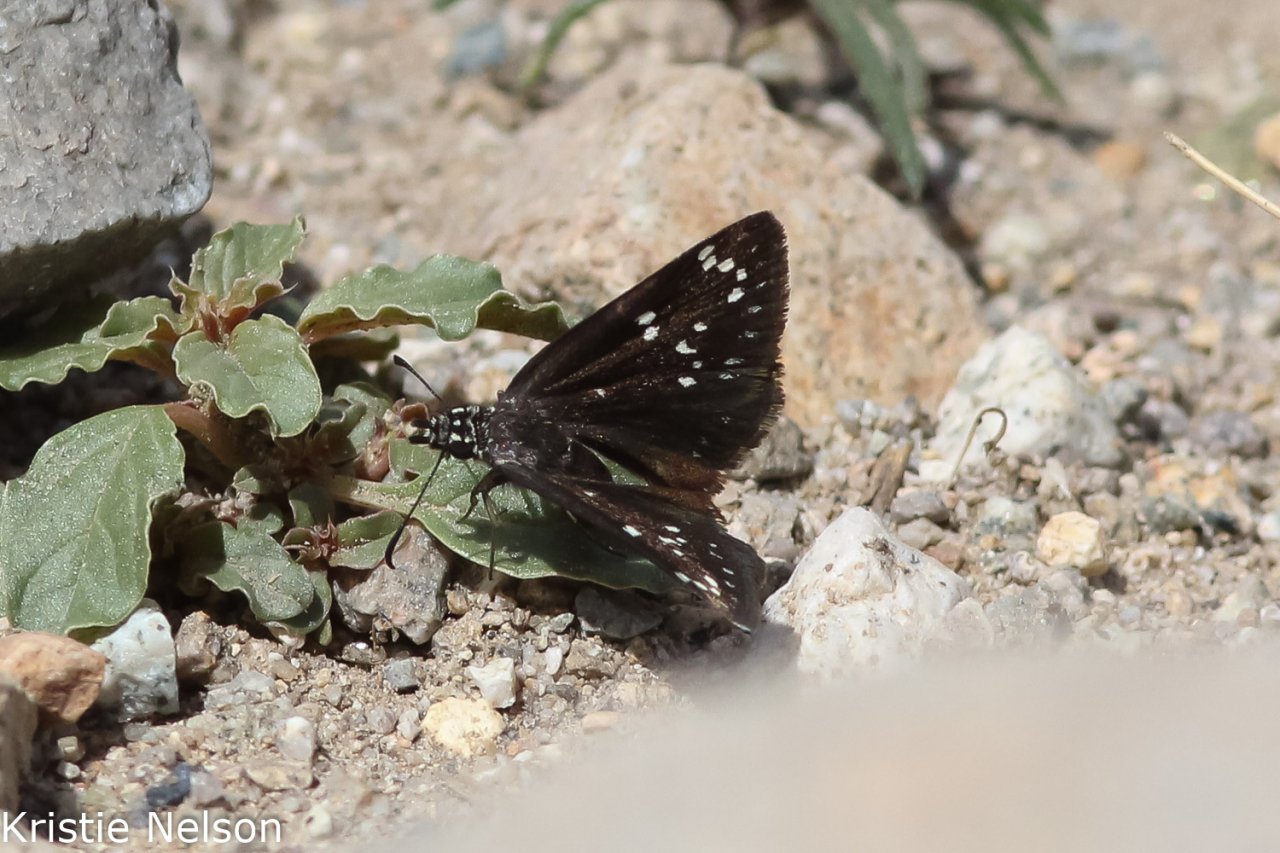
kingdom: Animalia
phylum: Arthropoda
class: Insecta
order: Lepidoptera
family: Hesperiidae
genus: Pholisora
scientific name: Pholisora catullus
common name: Common Sootywing
